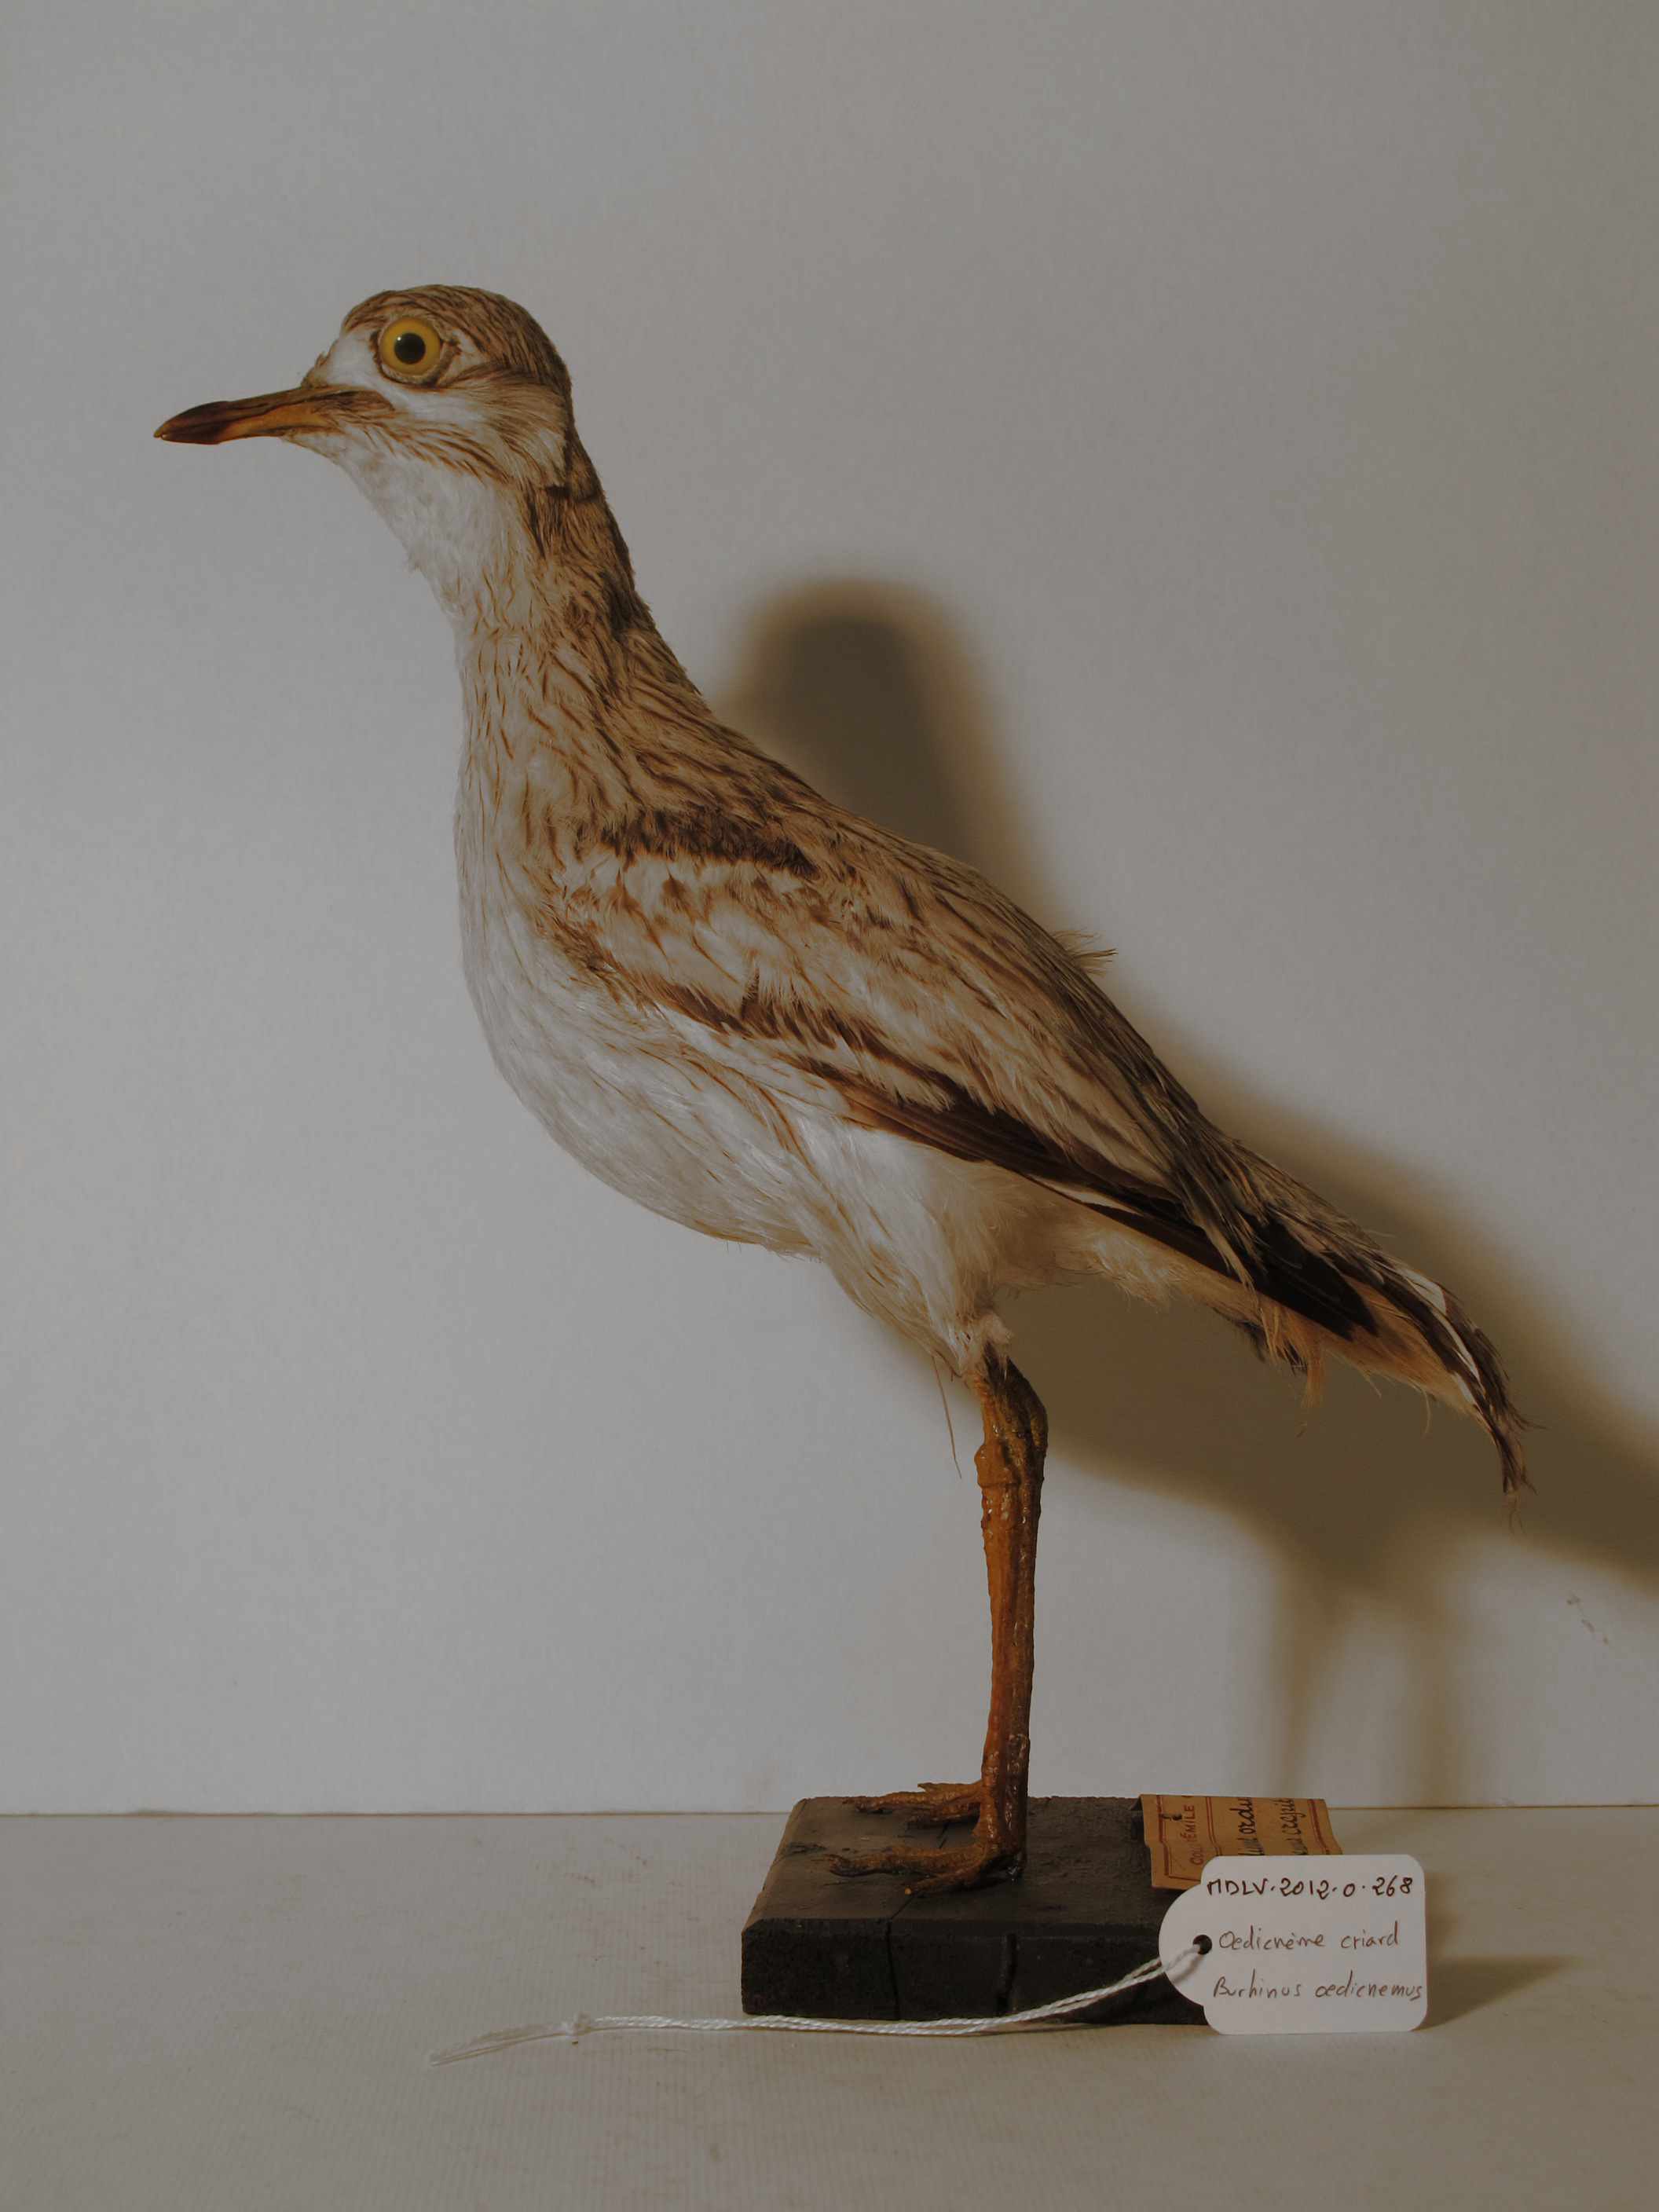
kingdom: Animalia
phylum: Chordata
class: Aves
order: Charadriiformes
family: Burhinidae
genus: Burhinus
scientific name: Burhinus oedicnemus
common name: Stone-curlew
